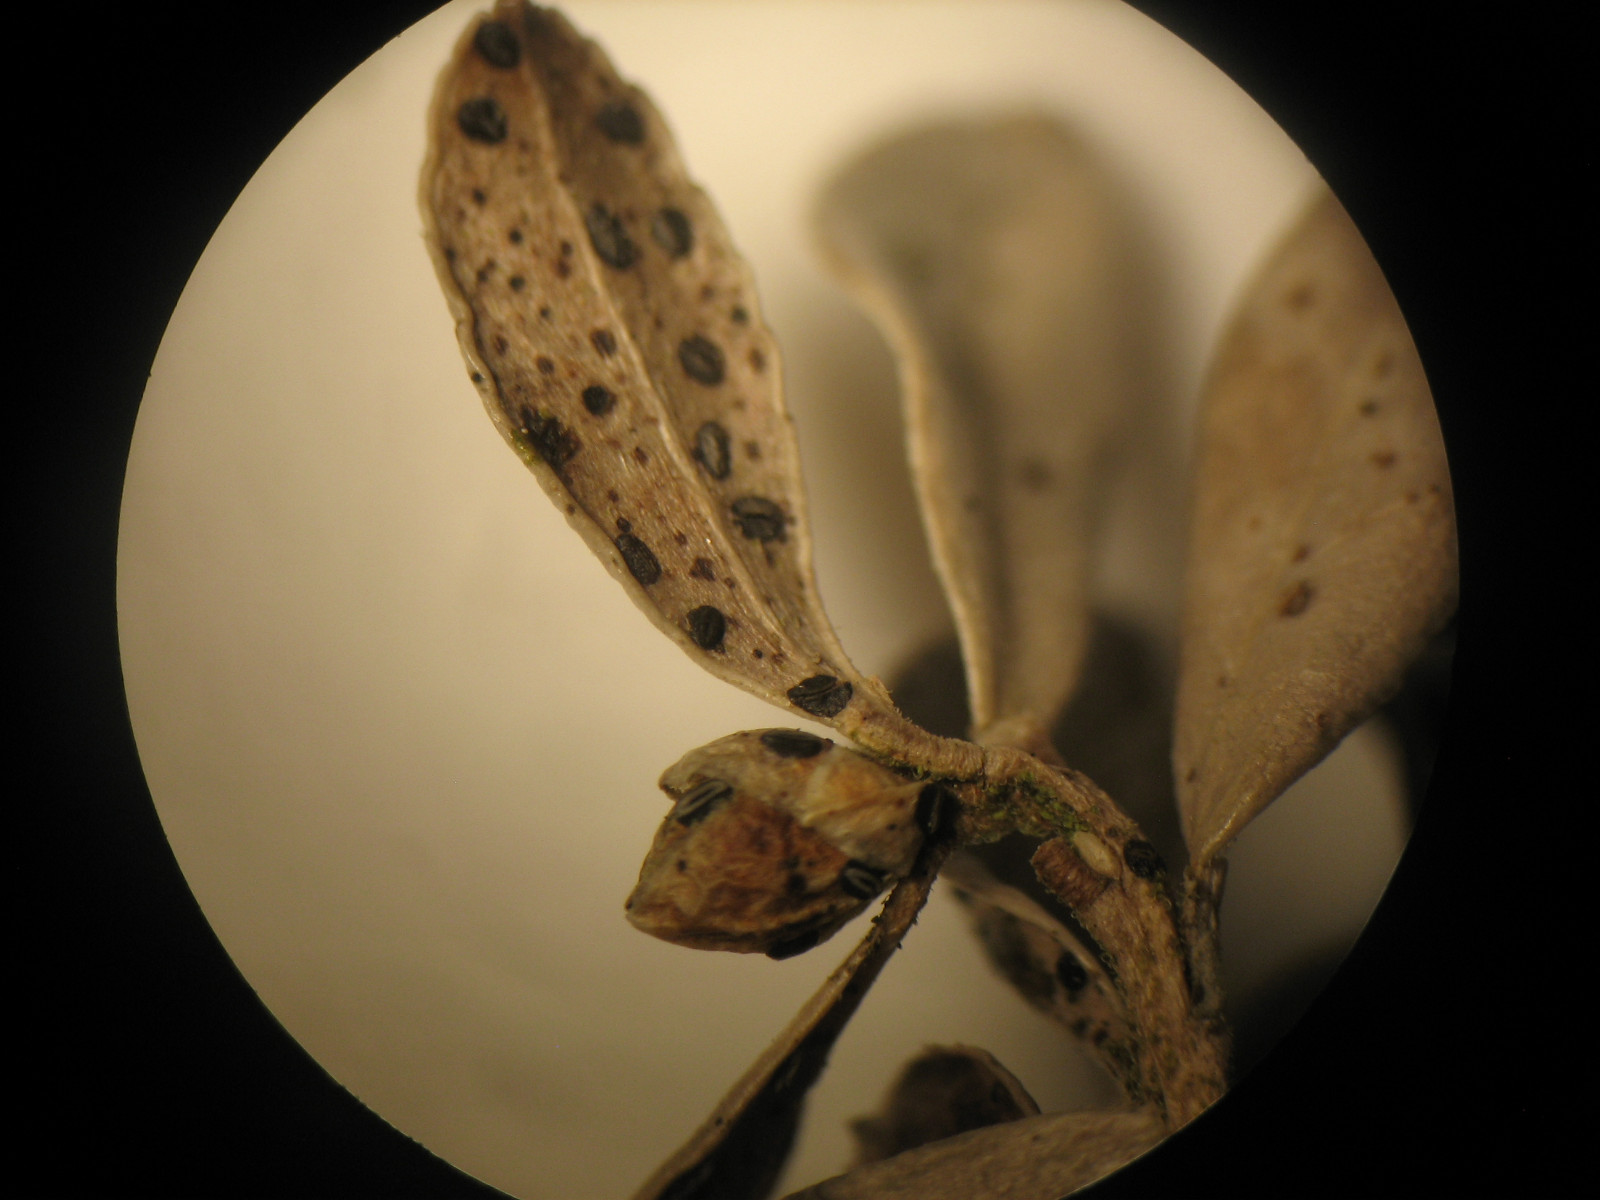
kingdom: Fungi
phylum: Ascomycota
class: Leotiomycetes
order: Rhytismatales
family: Rhytismataceae
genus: Lophodermium
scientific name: Lophodermium melaleucum
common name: tyttebær-fureplet
